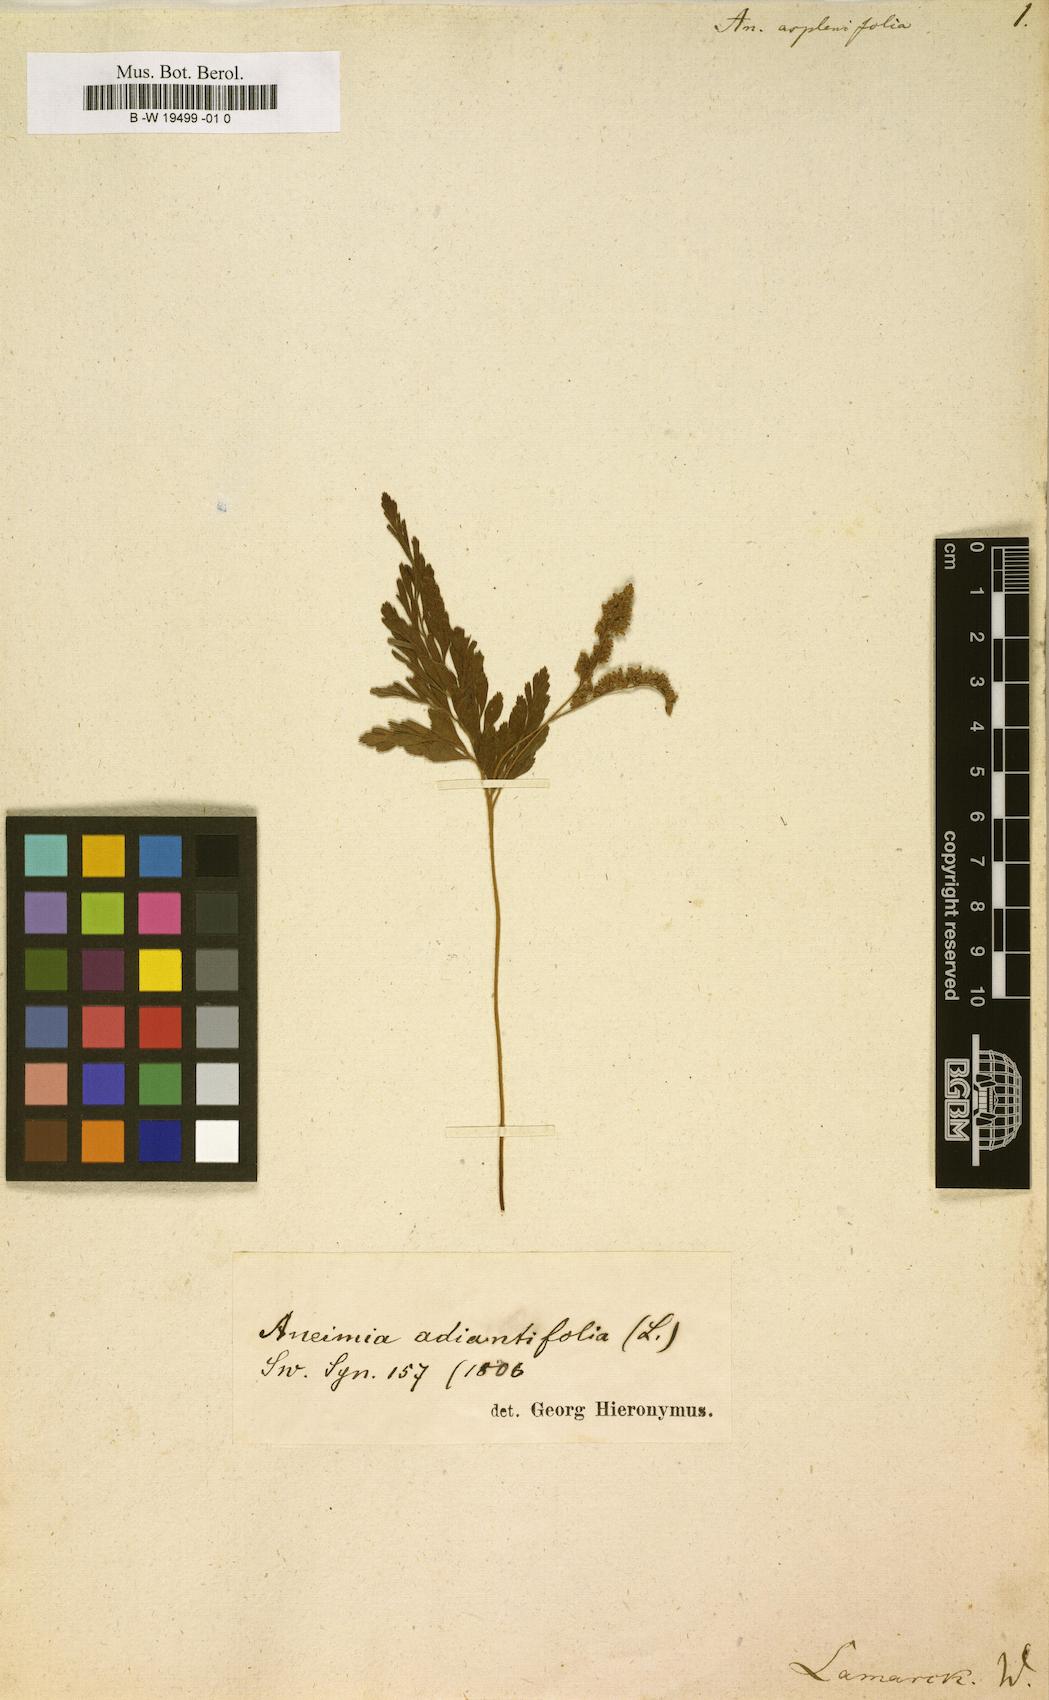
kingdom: Plantae
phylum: Tracheophyta
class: Polypodiopsida
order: Schizaeales
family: Anemiaceae
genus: Anemia
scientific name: Anemia adiantifolia
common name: Pine fern
